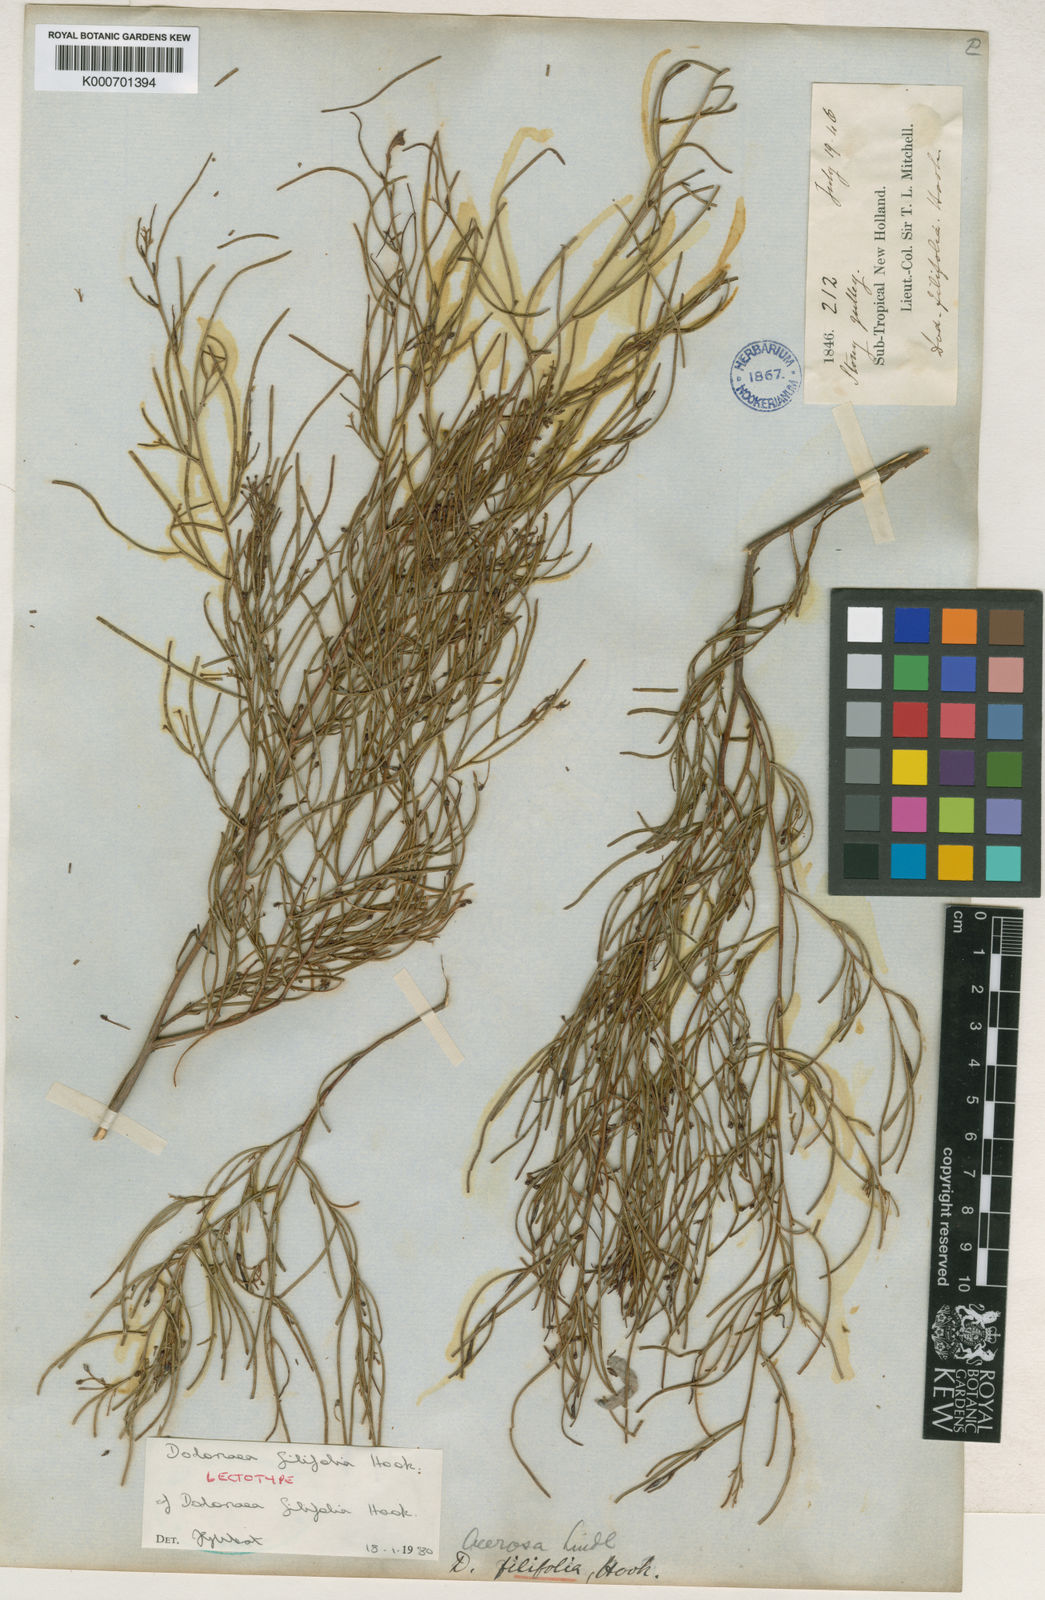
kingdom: Plantae
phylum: Tracheophyta
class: Magnoliopsida
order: Sapindales
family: Sapindaceae
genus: Dodonaea
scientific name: Dodonaea filifolia
